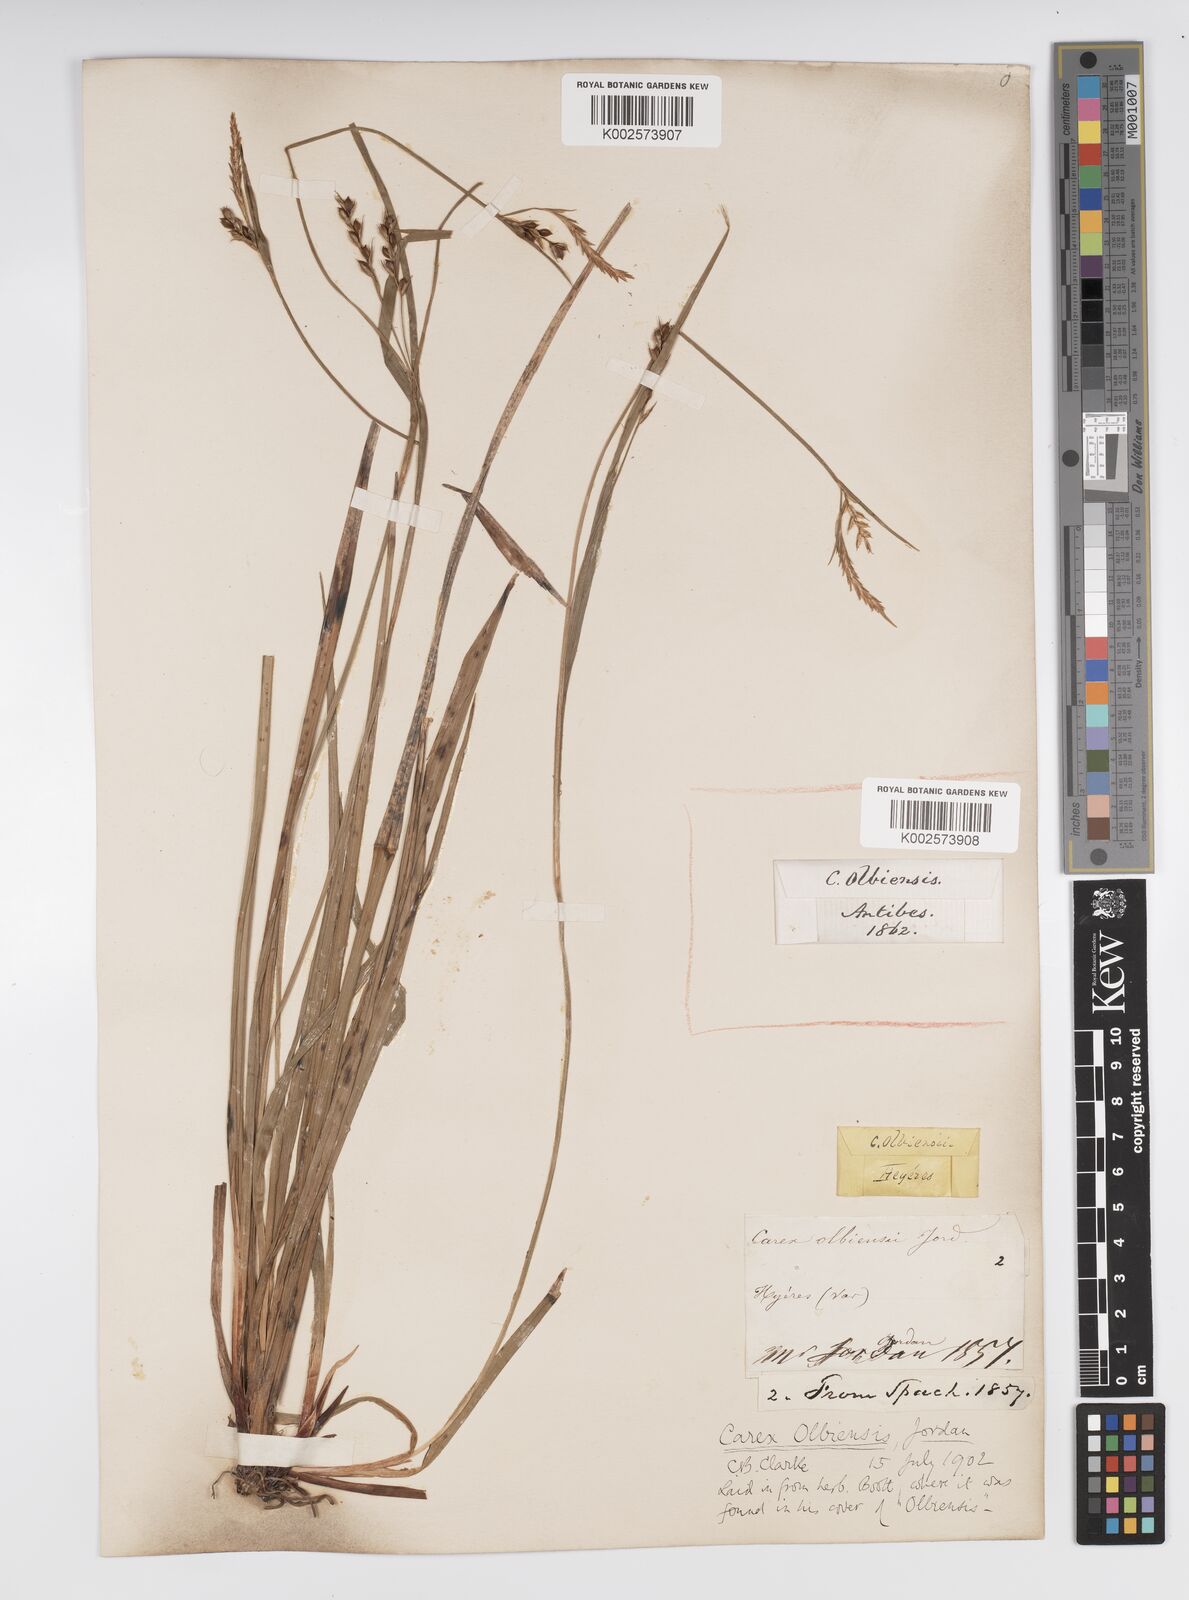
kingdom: Plantae
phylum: Tracheophyta
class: Liliopsida
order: Poales
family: Cyperaceae
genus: Carex
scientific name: Carex olbiensis
